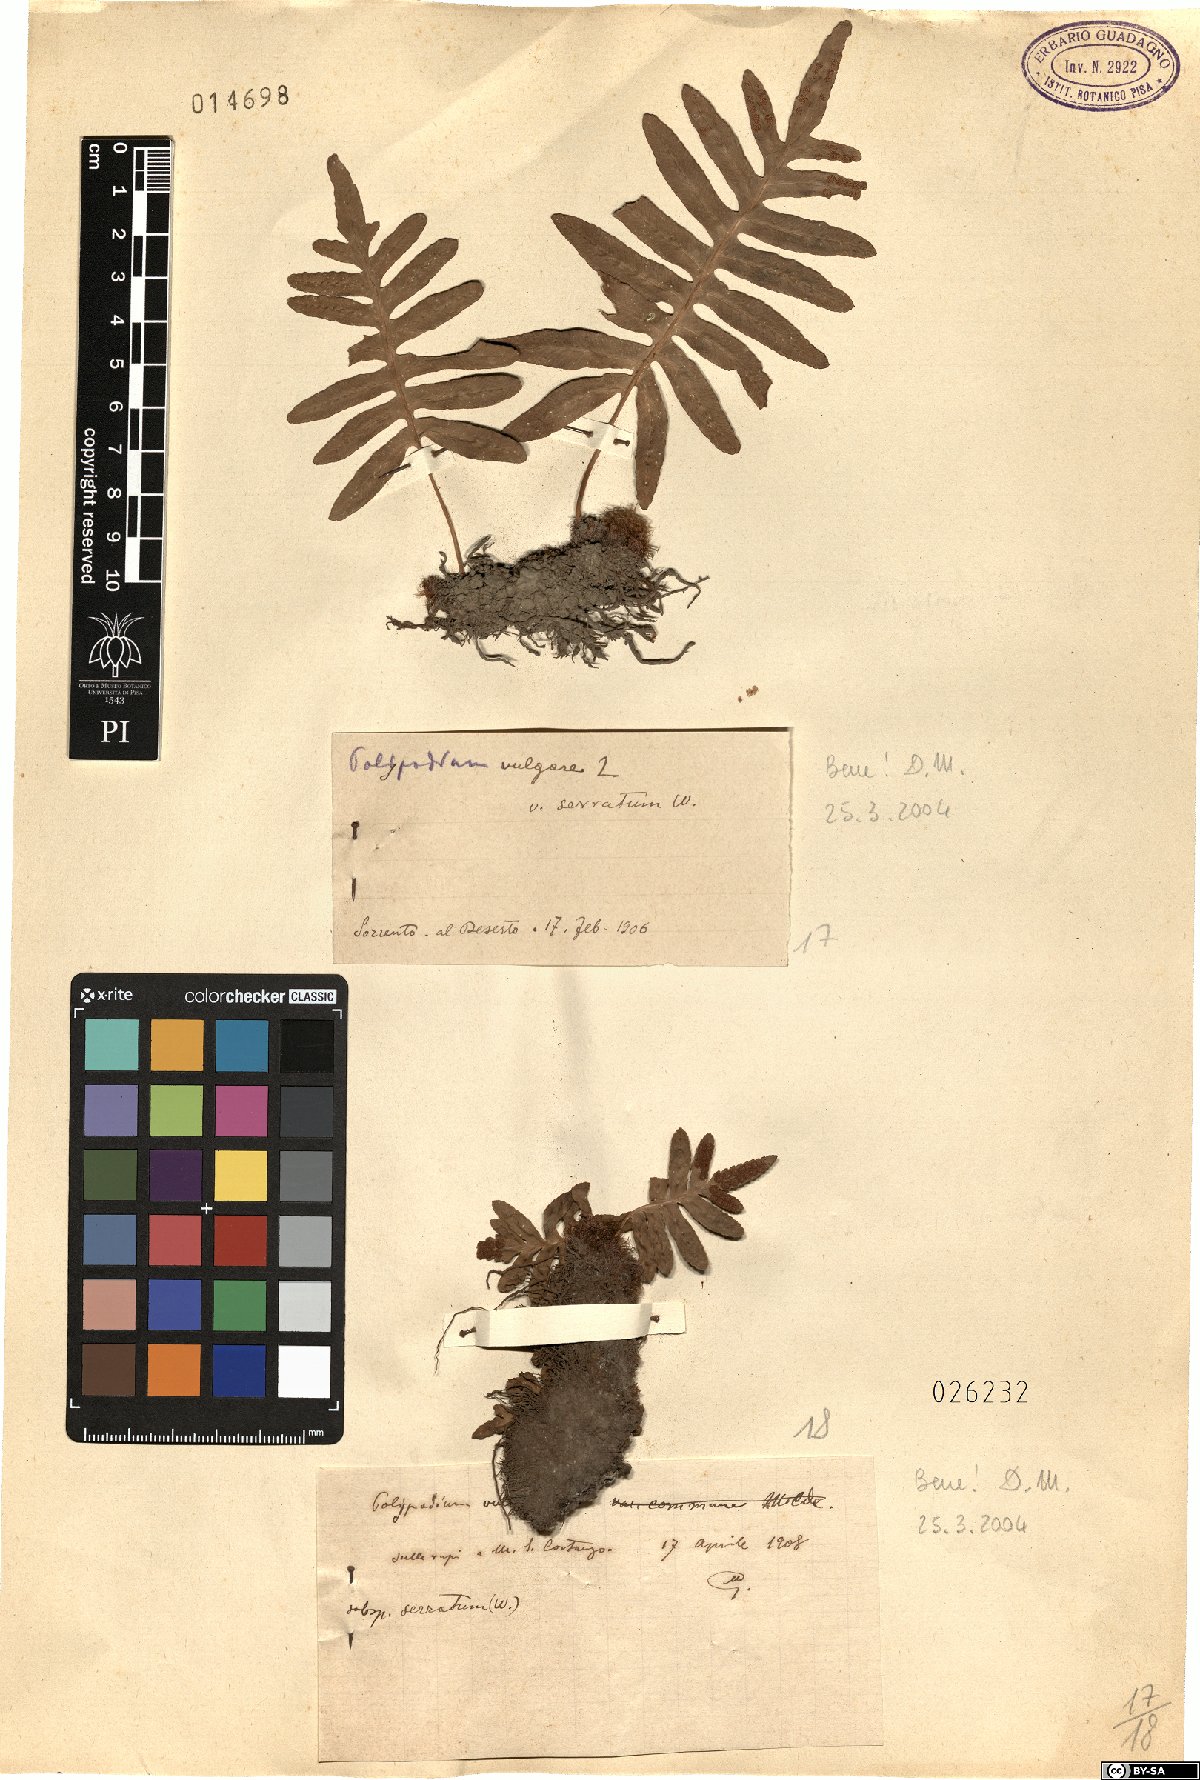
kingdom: Plantae
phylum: Tracheophyta
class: Polypodiopsida
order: Polypodiales
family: Polypodiaceae
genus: Polypodium
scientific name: Polypodium cambricum
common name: Southern polypody
